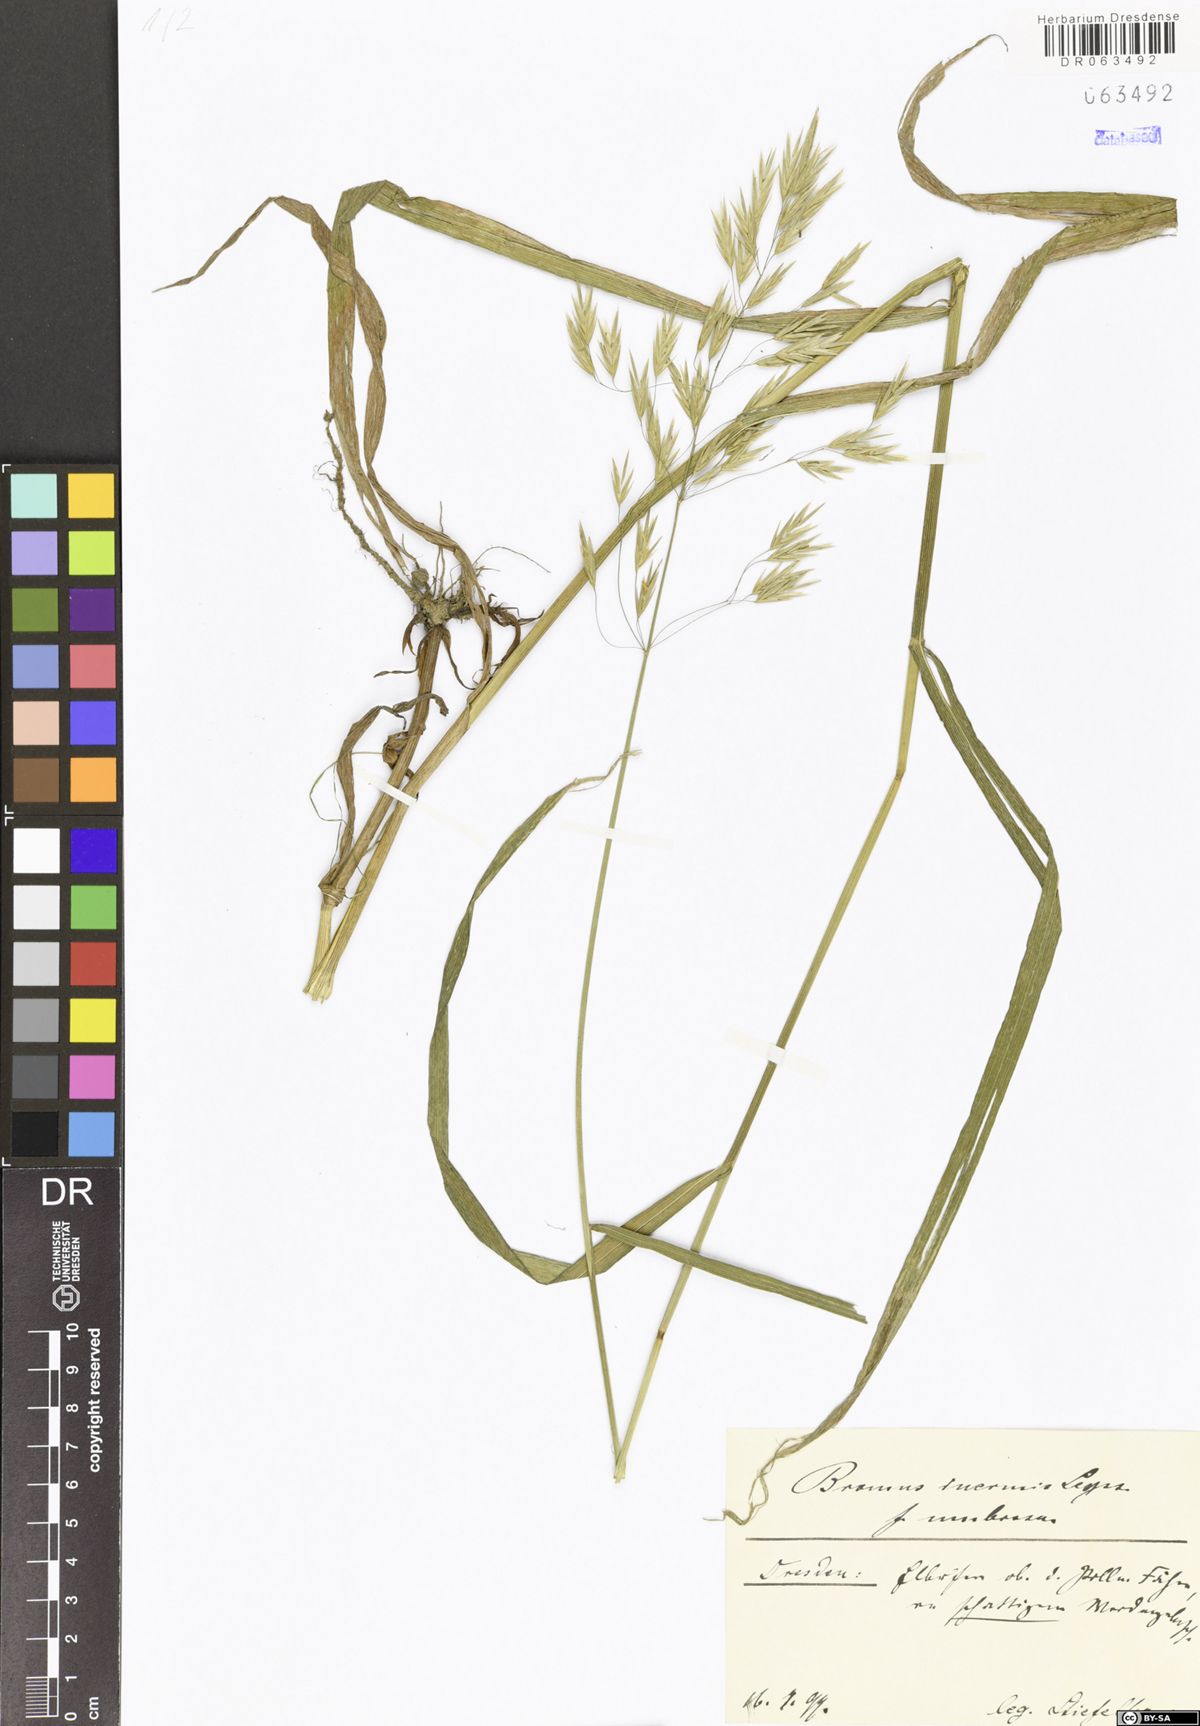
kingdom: Plantae
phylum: Tracheophyta
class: Liliopsida
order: Poales
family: Poaceae
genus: Bromus
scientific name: Bromus inermis
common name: Smooth brome
